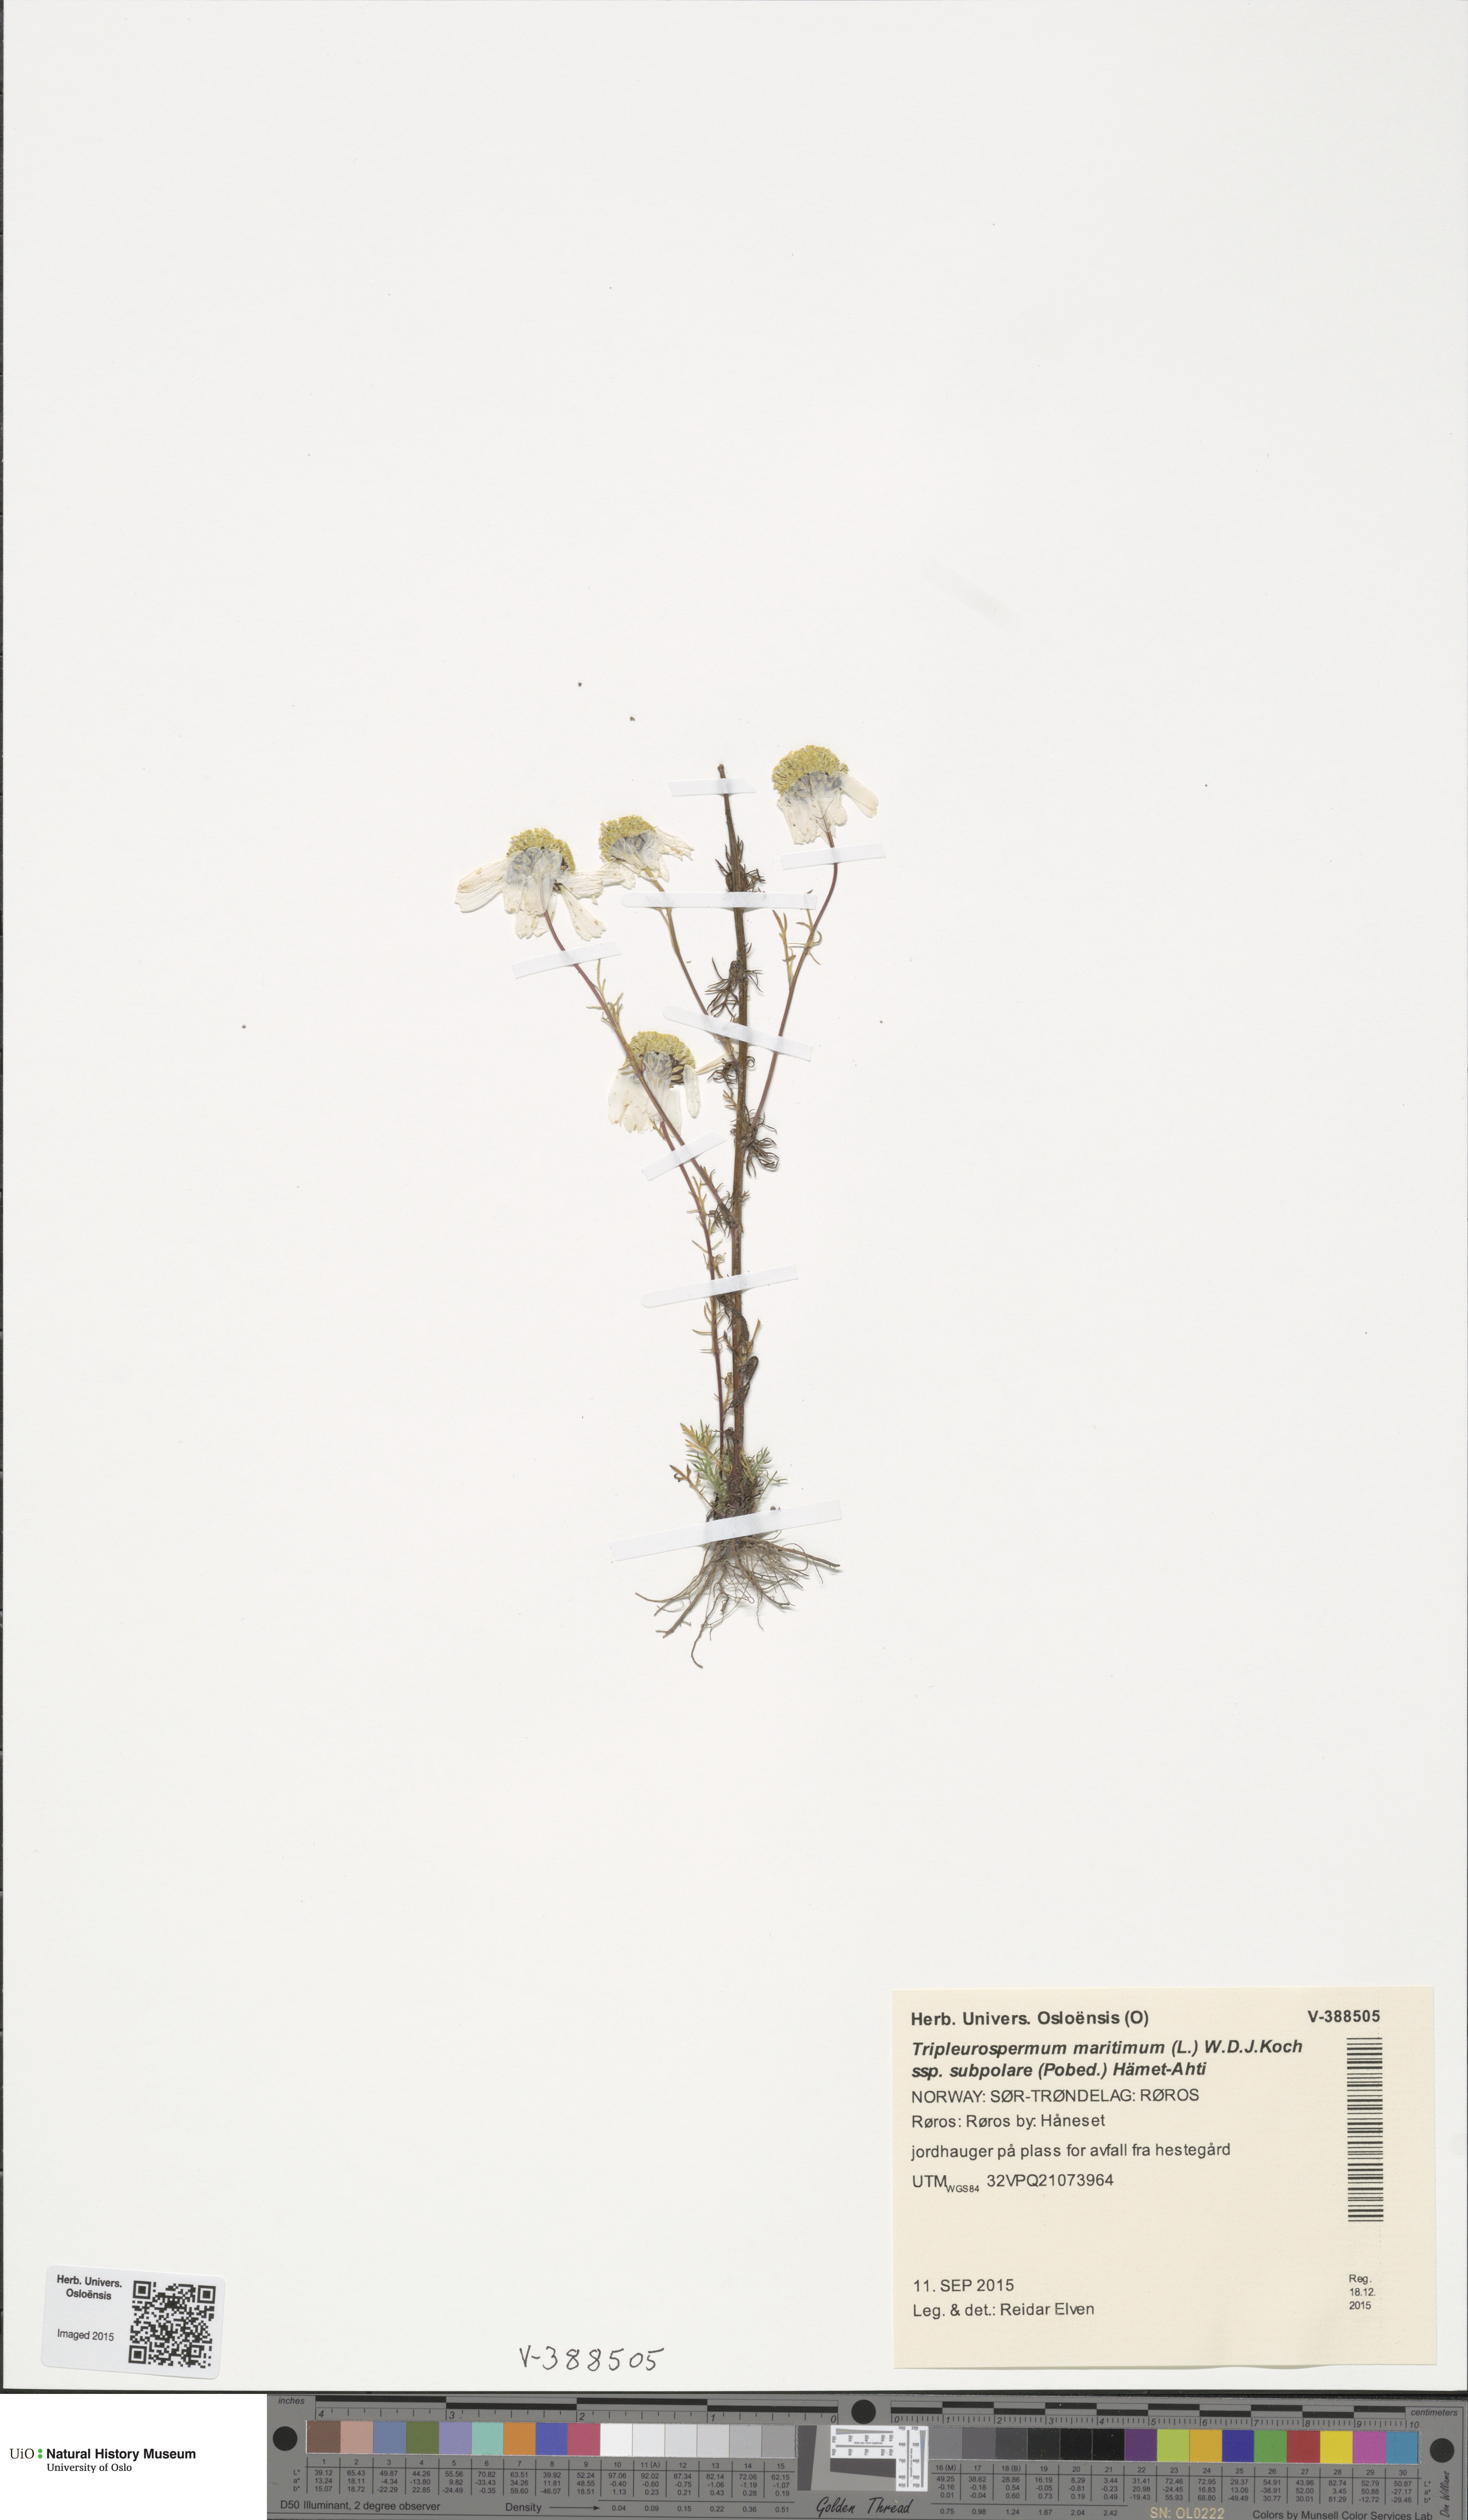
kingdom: Plantae
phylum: Tracheophyta
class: Magnoliopsida
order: Asterales
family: Asteraceae
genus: Tripleurospermum
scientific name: Tripleurospermum subpolare
